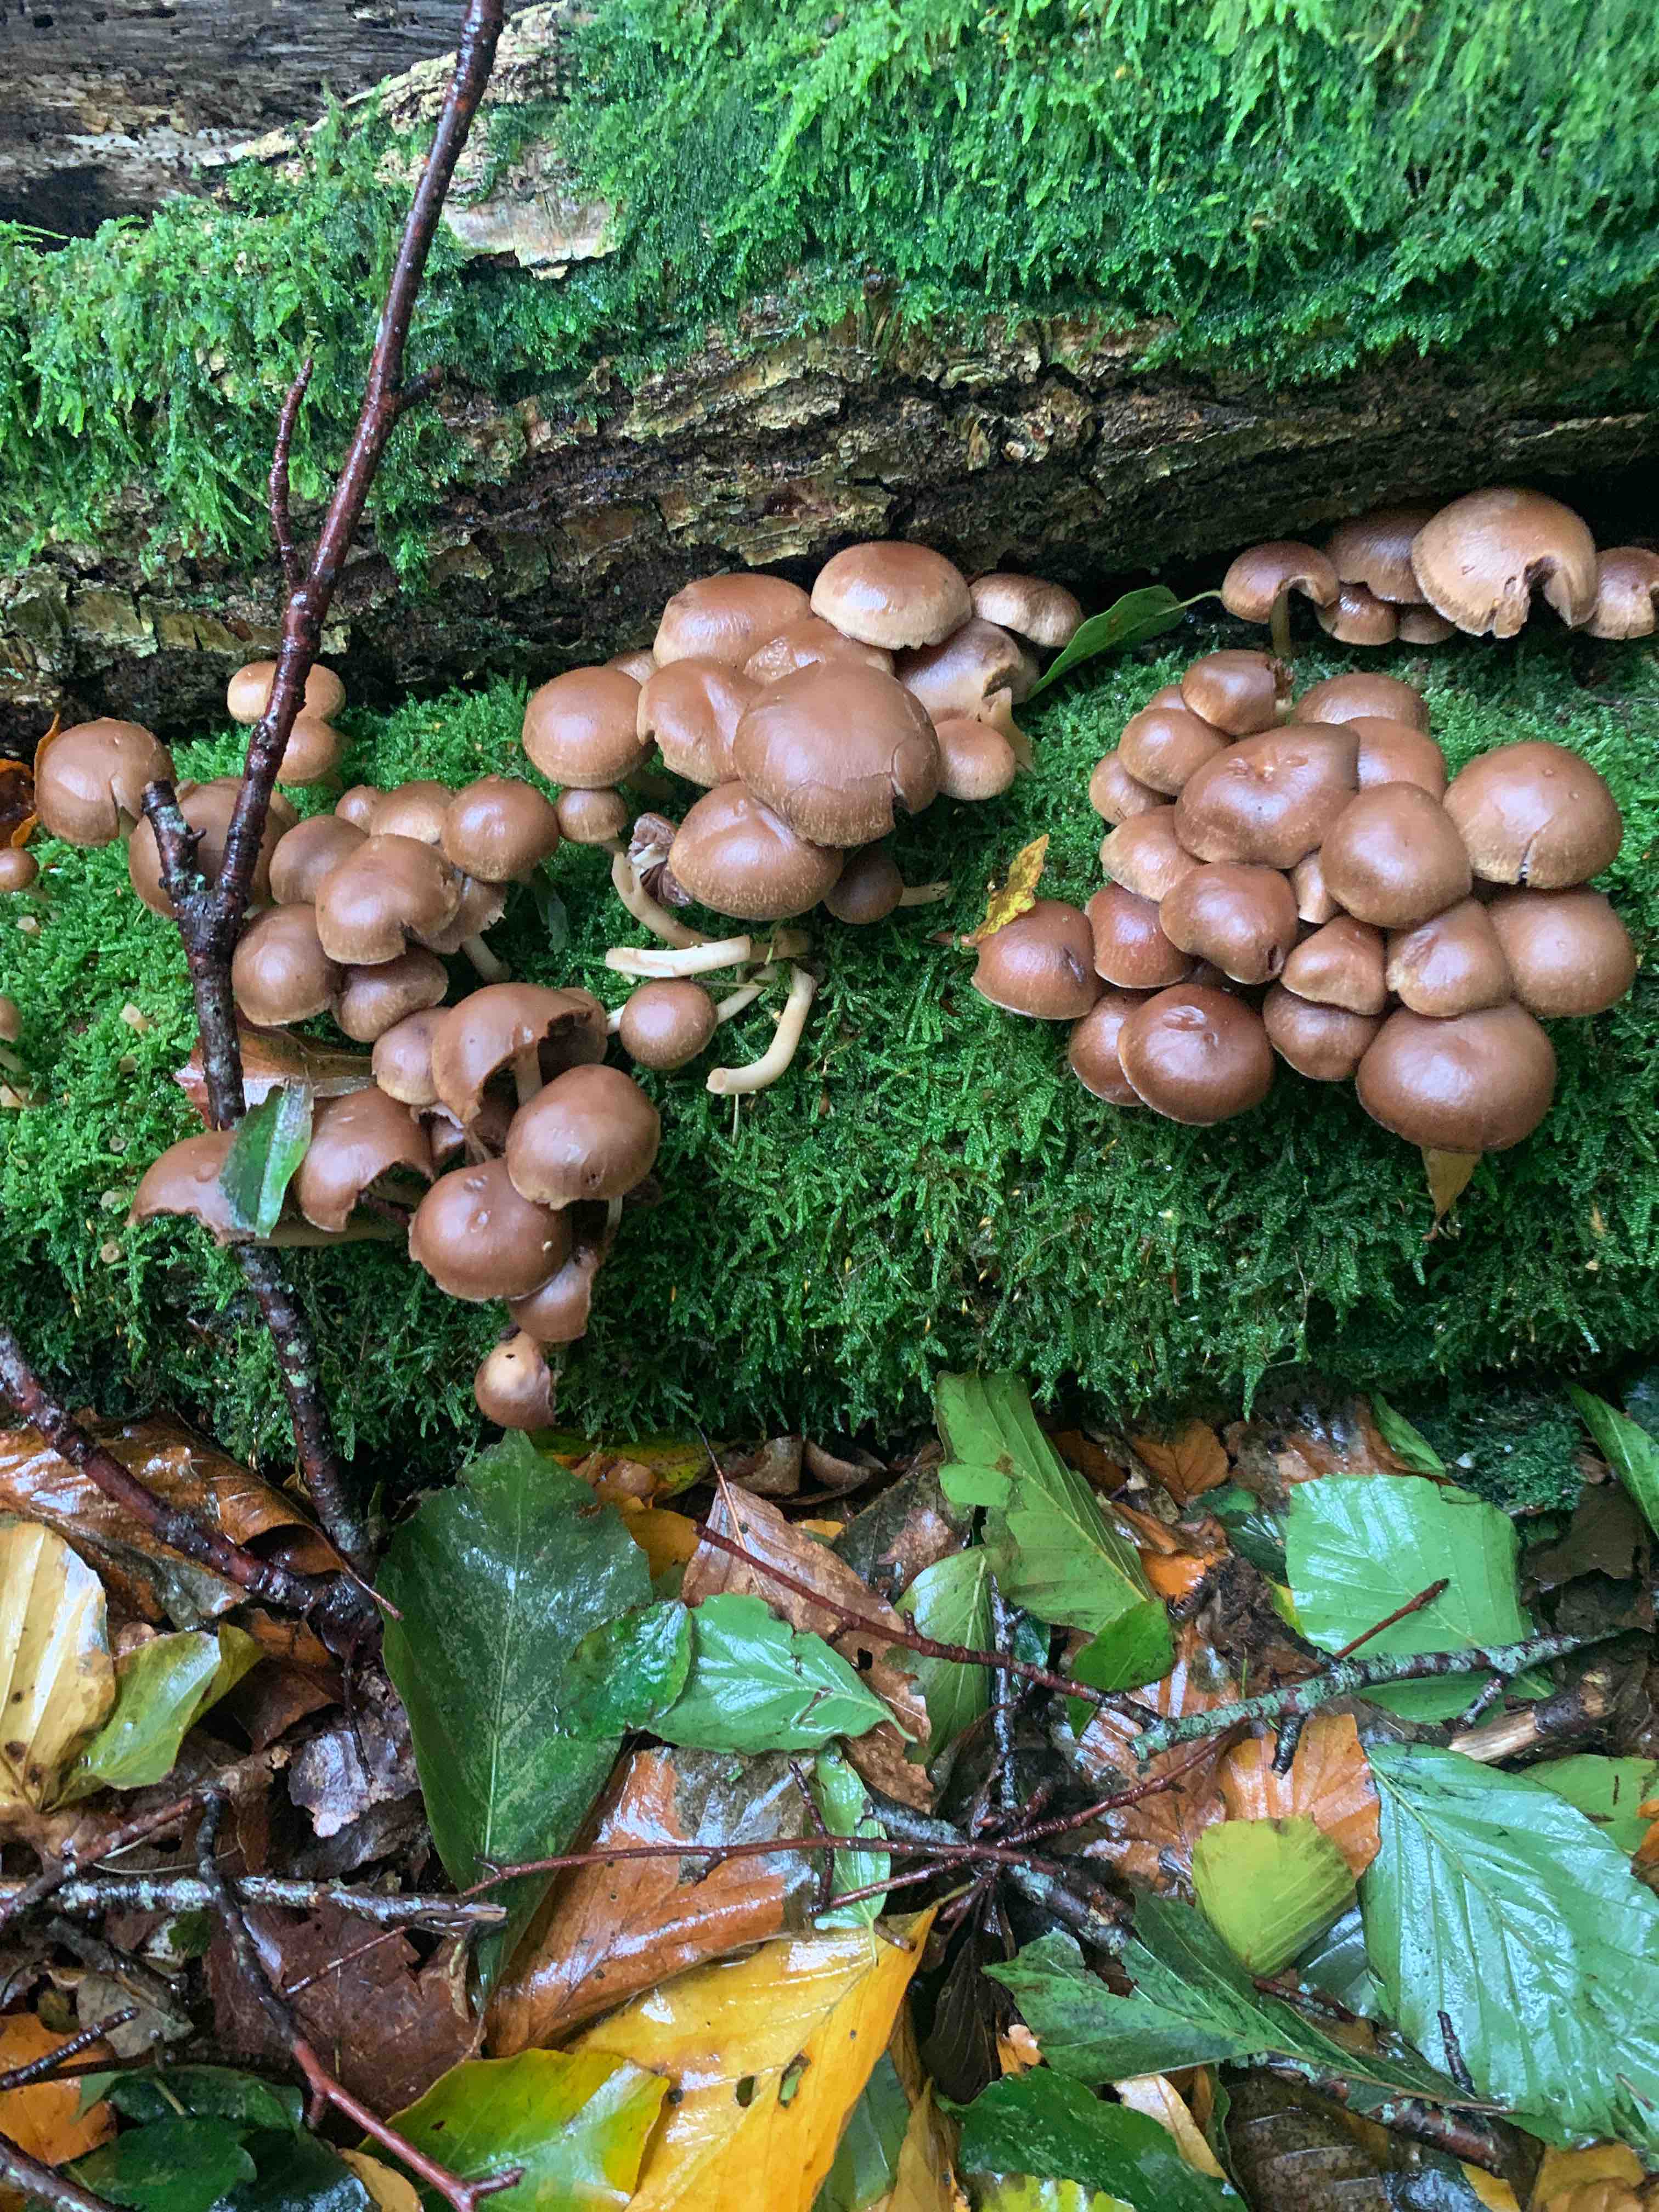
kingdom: Fungi
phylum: Basidiomycota
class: Agaricomycetes
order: Agaricales
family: Psathyrellaceae
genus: Psathyrella
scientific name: Psathyrella piluliformis
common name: lysstokket mørkhat
